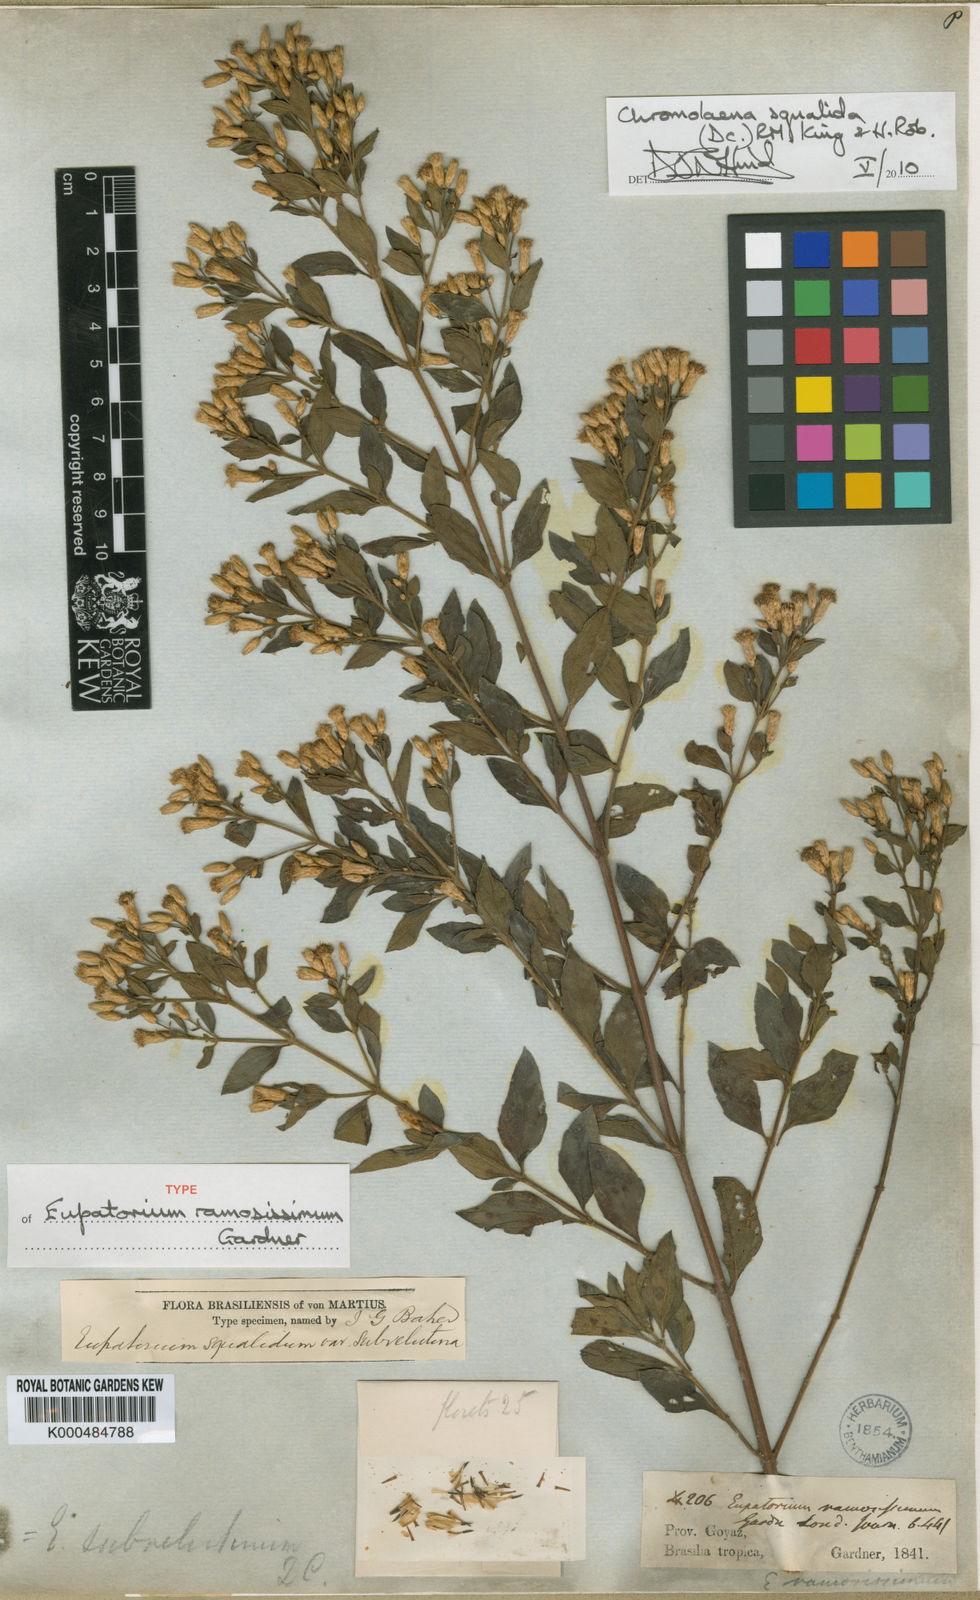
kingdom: Plantae
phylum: Tracheophyta
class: Magnoliopsida
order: Asterales
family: Asteraceae
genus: Chromolaena
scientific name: Chromolaena squalida
